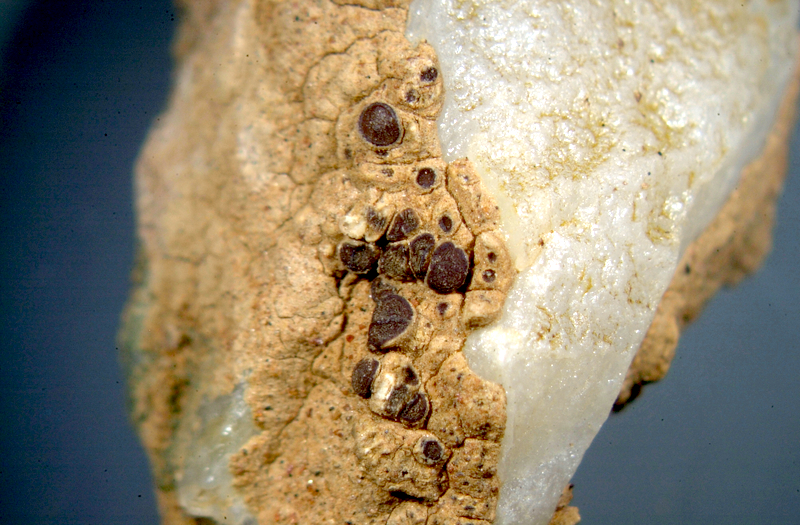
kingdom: Fungi
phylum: Ascomycota
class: Lecanoromycetes
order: Caliciales
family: Caliciaceae
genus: Buellia
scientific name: Buellia
